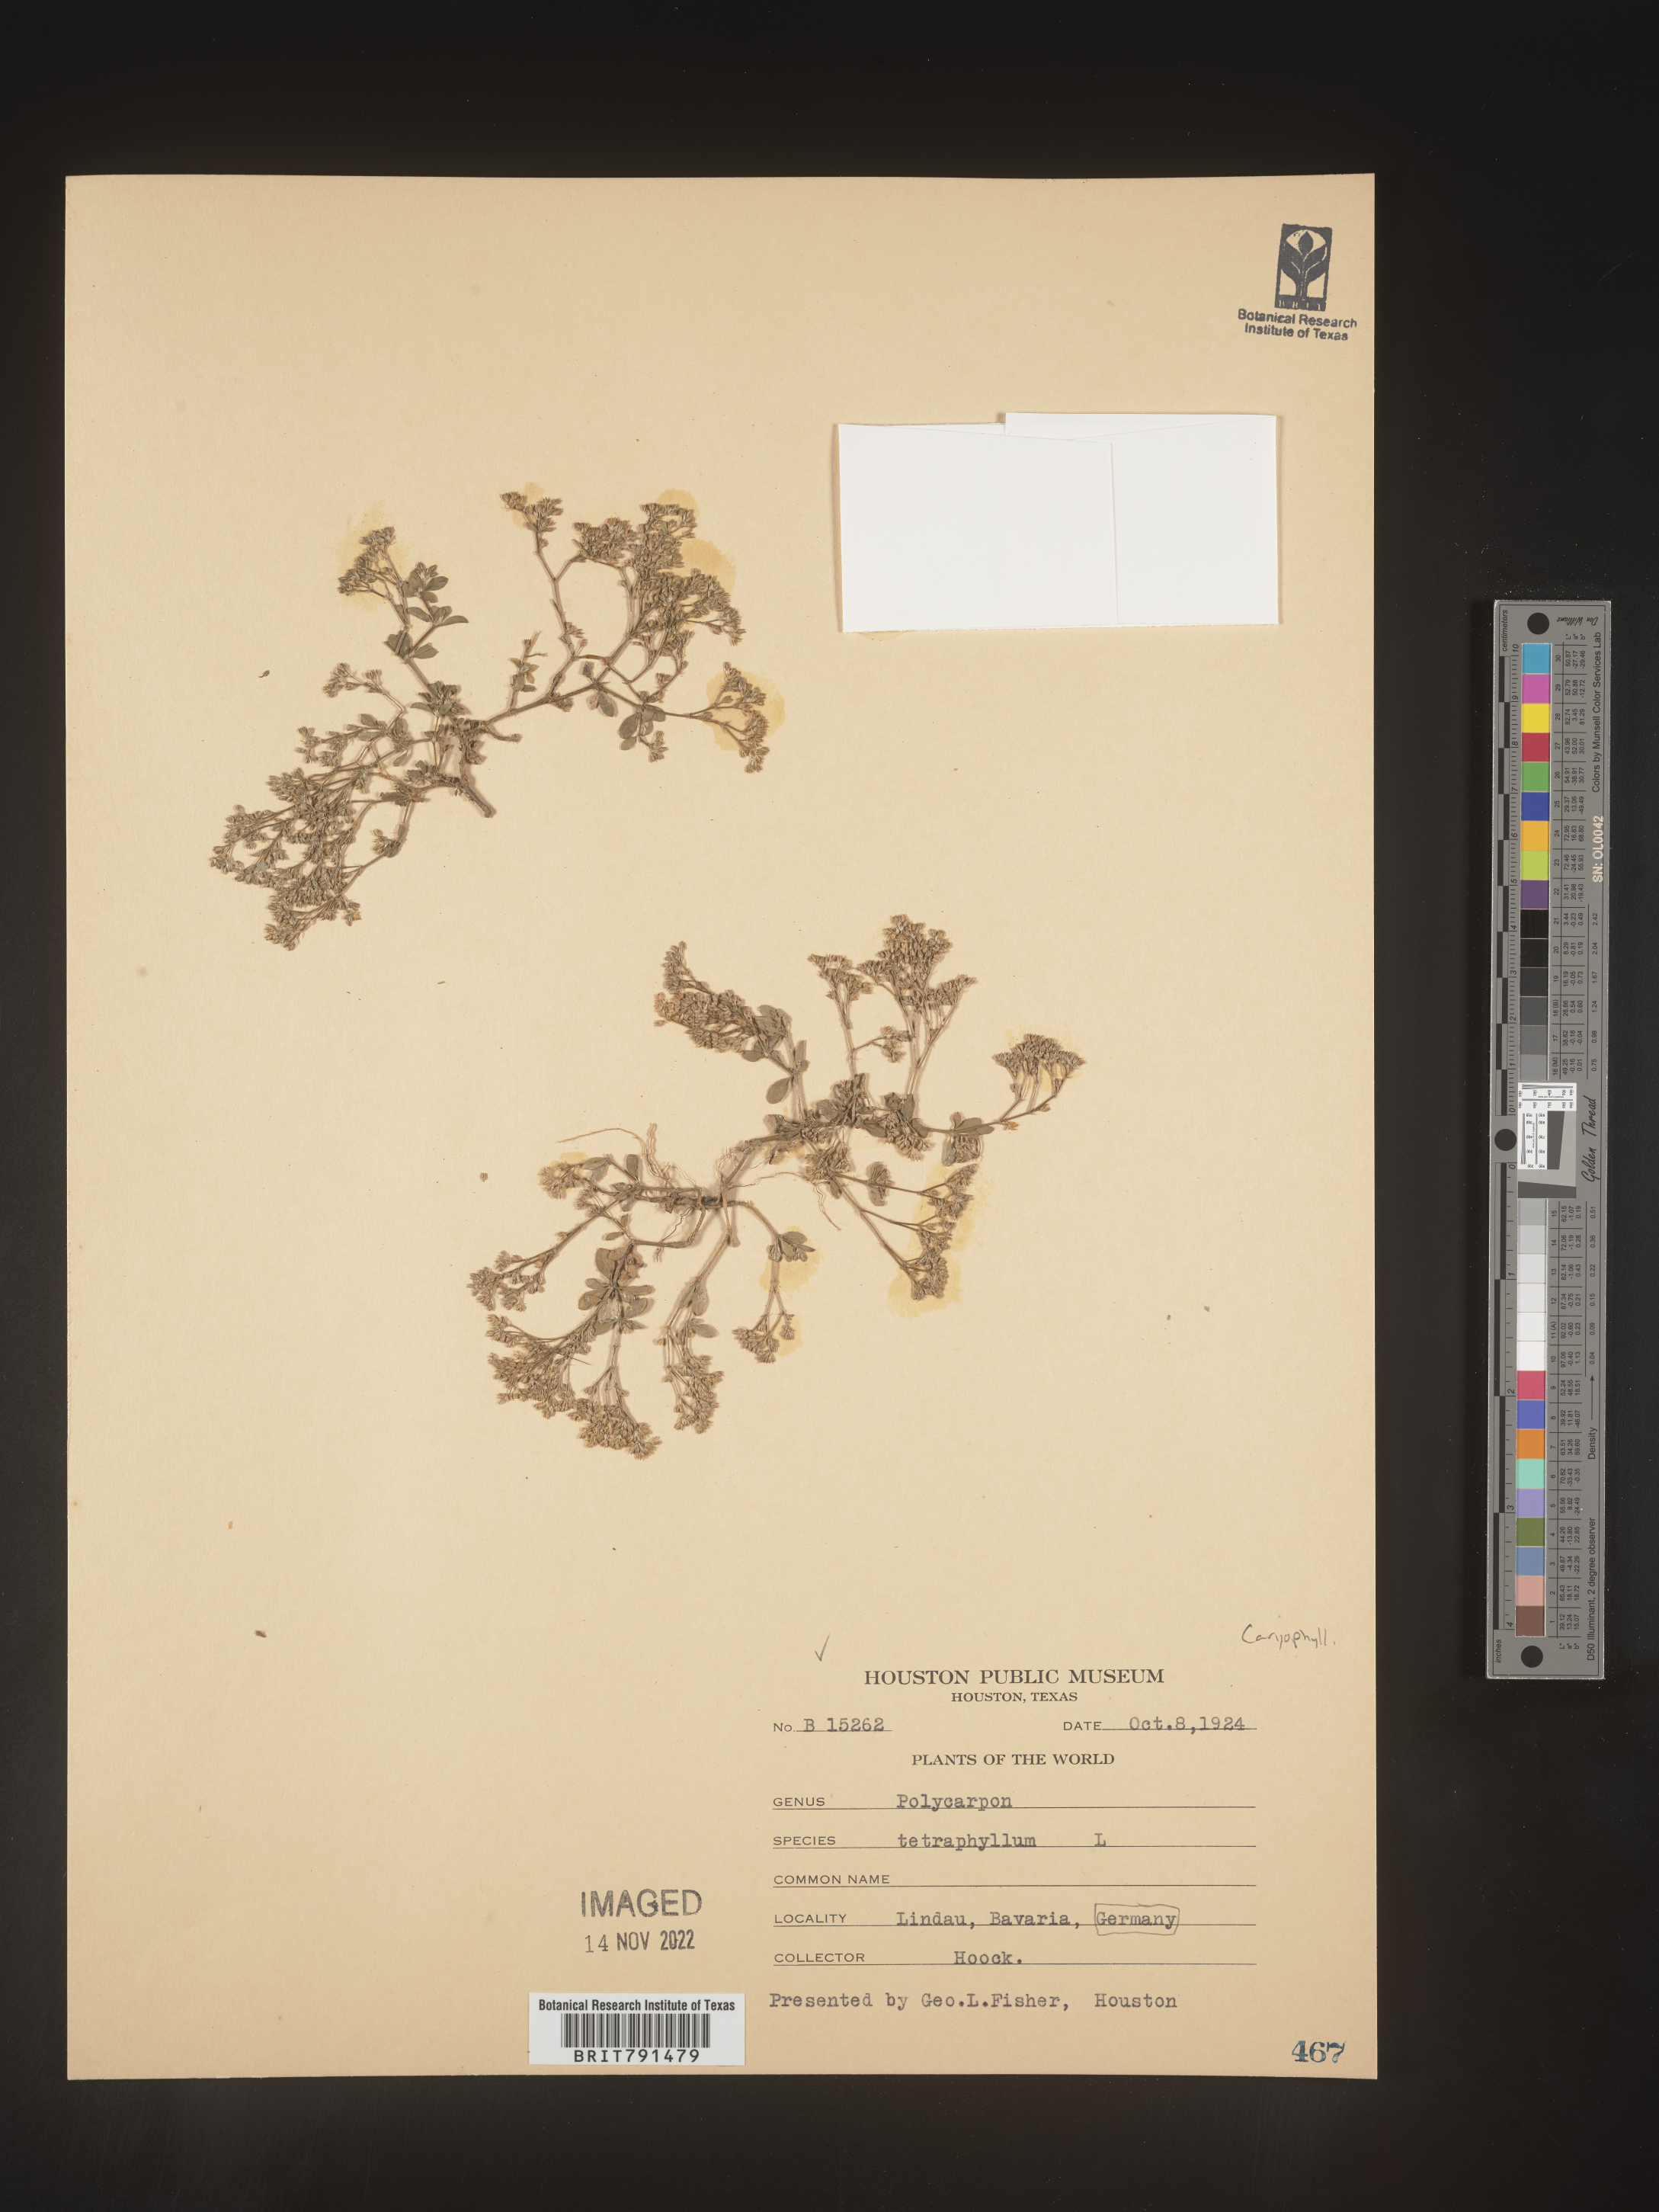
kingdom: Plantae
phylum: Tracheophyta
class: Magnoliopsida
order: Caryophyllales
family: Caryophyllaceae
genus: Polycarpon
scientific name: Polycarpon
